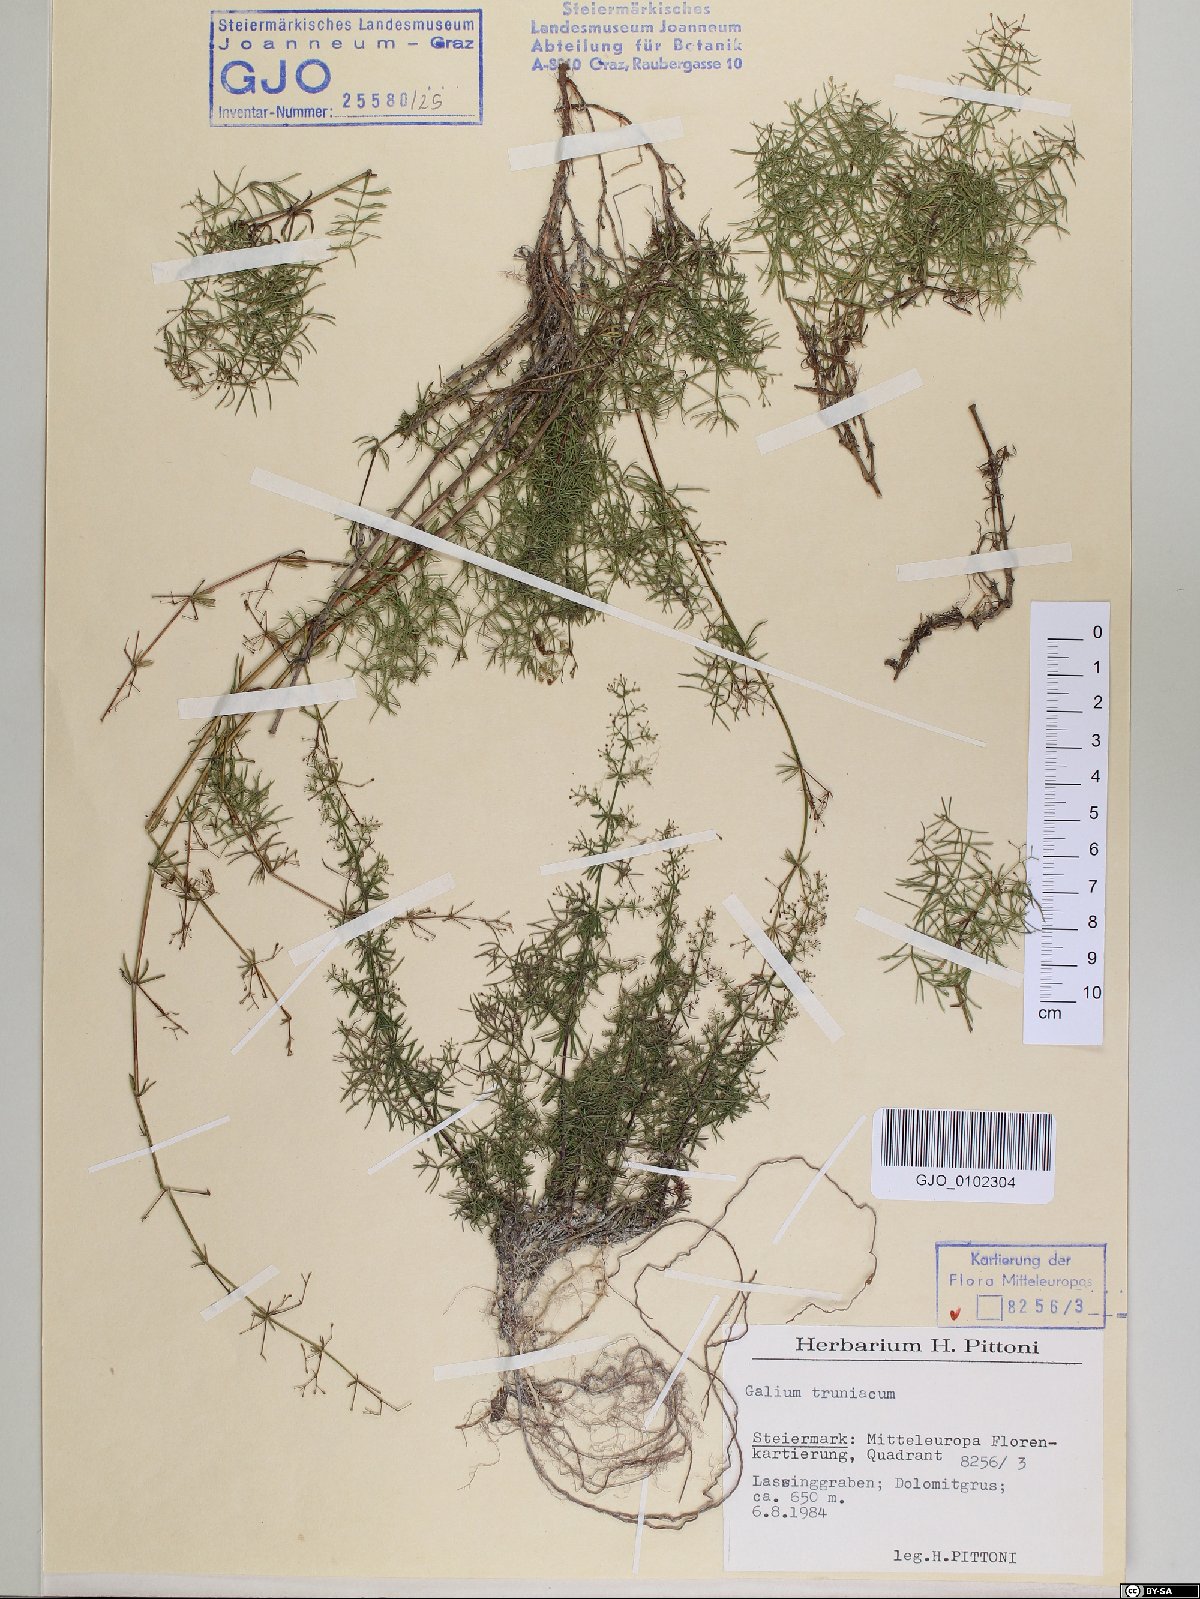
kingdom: Plantae
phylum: Tracheophyta
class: Magnoliopsida
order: Gentianales
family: Rubiaceae
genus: Galium
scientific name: Galium truniacum
